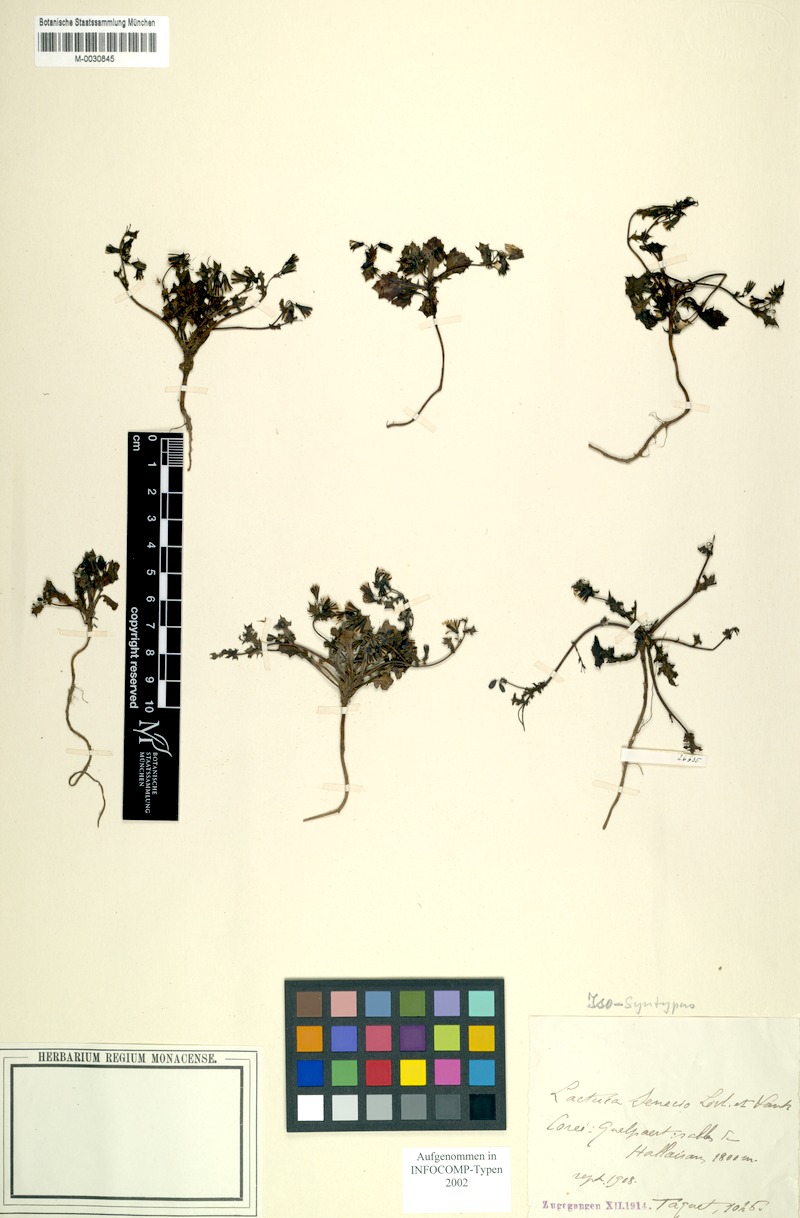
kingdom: Plantae
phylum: Tracheophyta
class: Magnoliopsida
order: Asterales
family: Asteraceae
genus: Crepidiastrum
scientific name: Crepidiastrum sonchifolium
